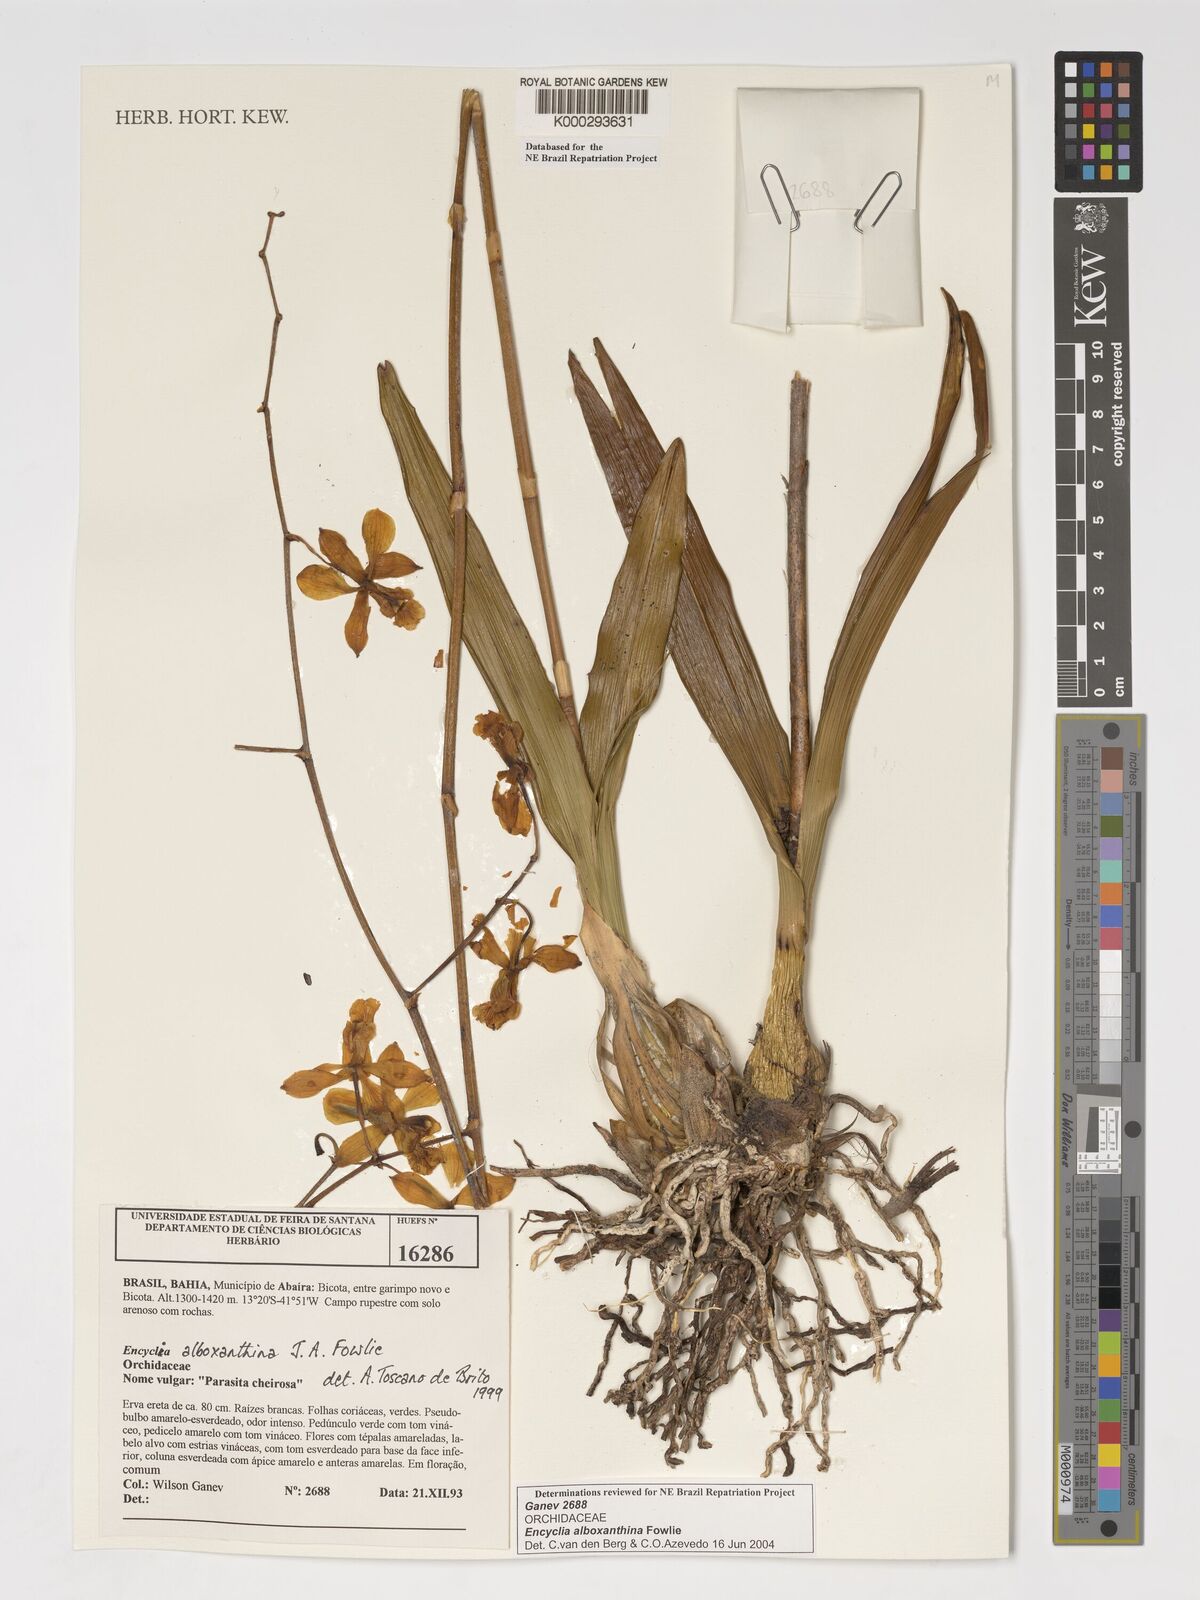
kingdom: Plantae
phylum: Tracheophyta
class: Liliopsida
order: Asparagales
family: Orchidaceae
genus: Encyclia
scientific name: Encyclia alboxanthina
